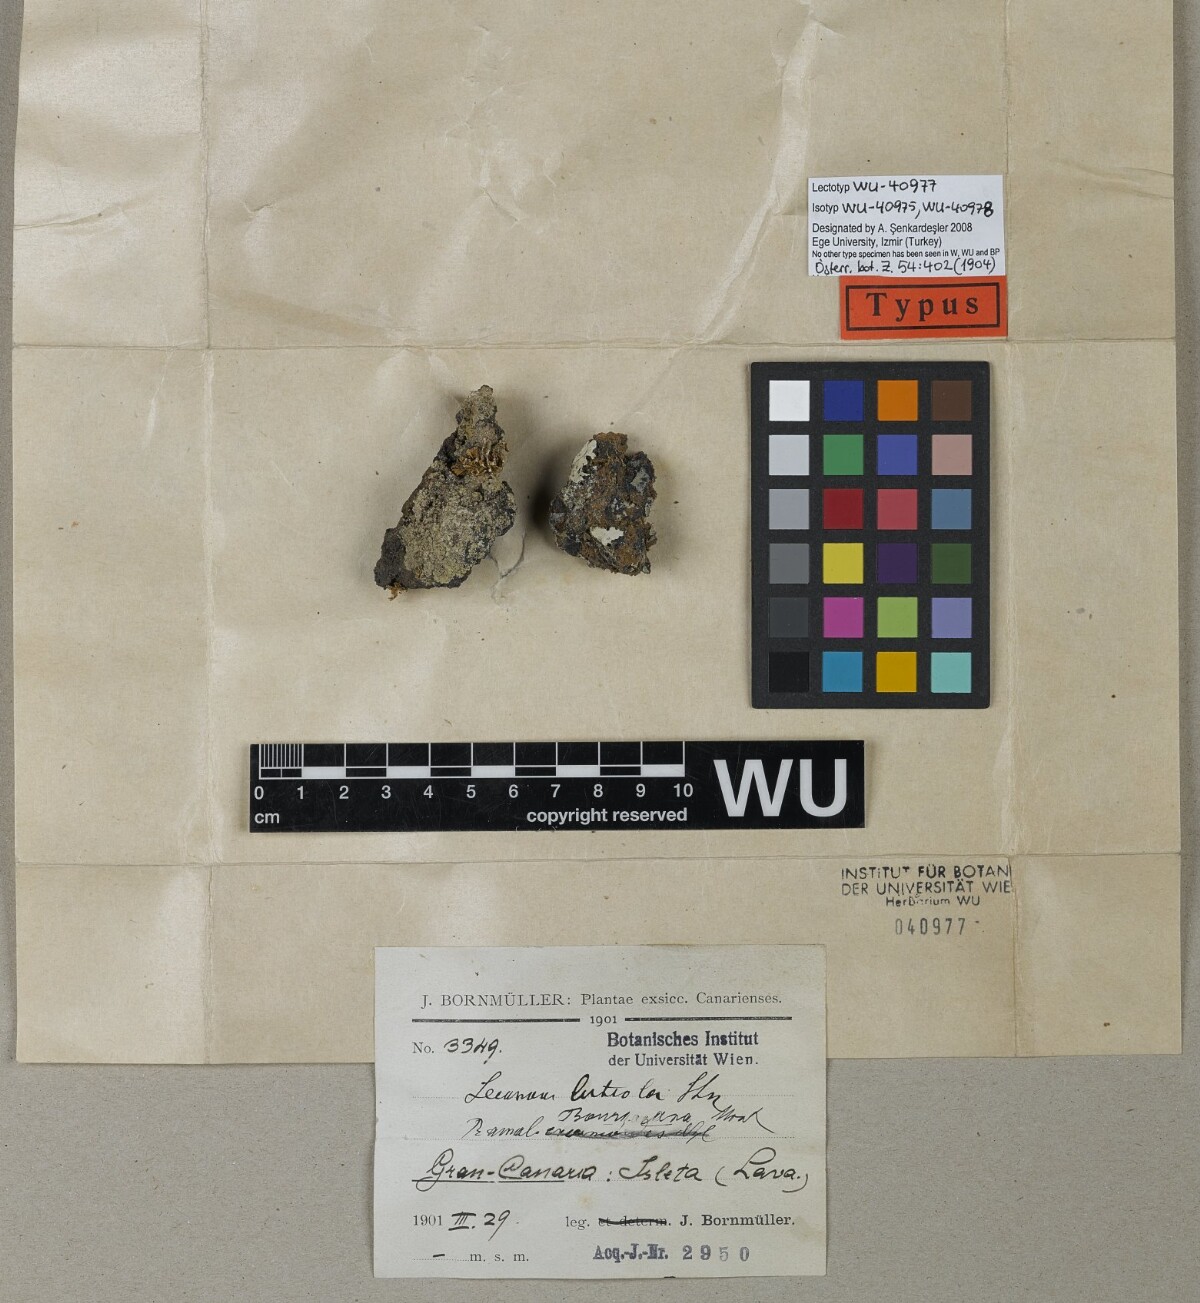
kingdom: Fungi
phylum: Ascomycota
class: Lecanoromycetes
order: Lecanorales
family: Lecanoraceae
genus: Lecanora
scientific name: Lecanora
